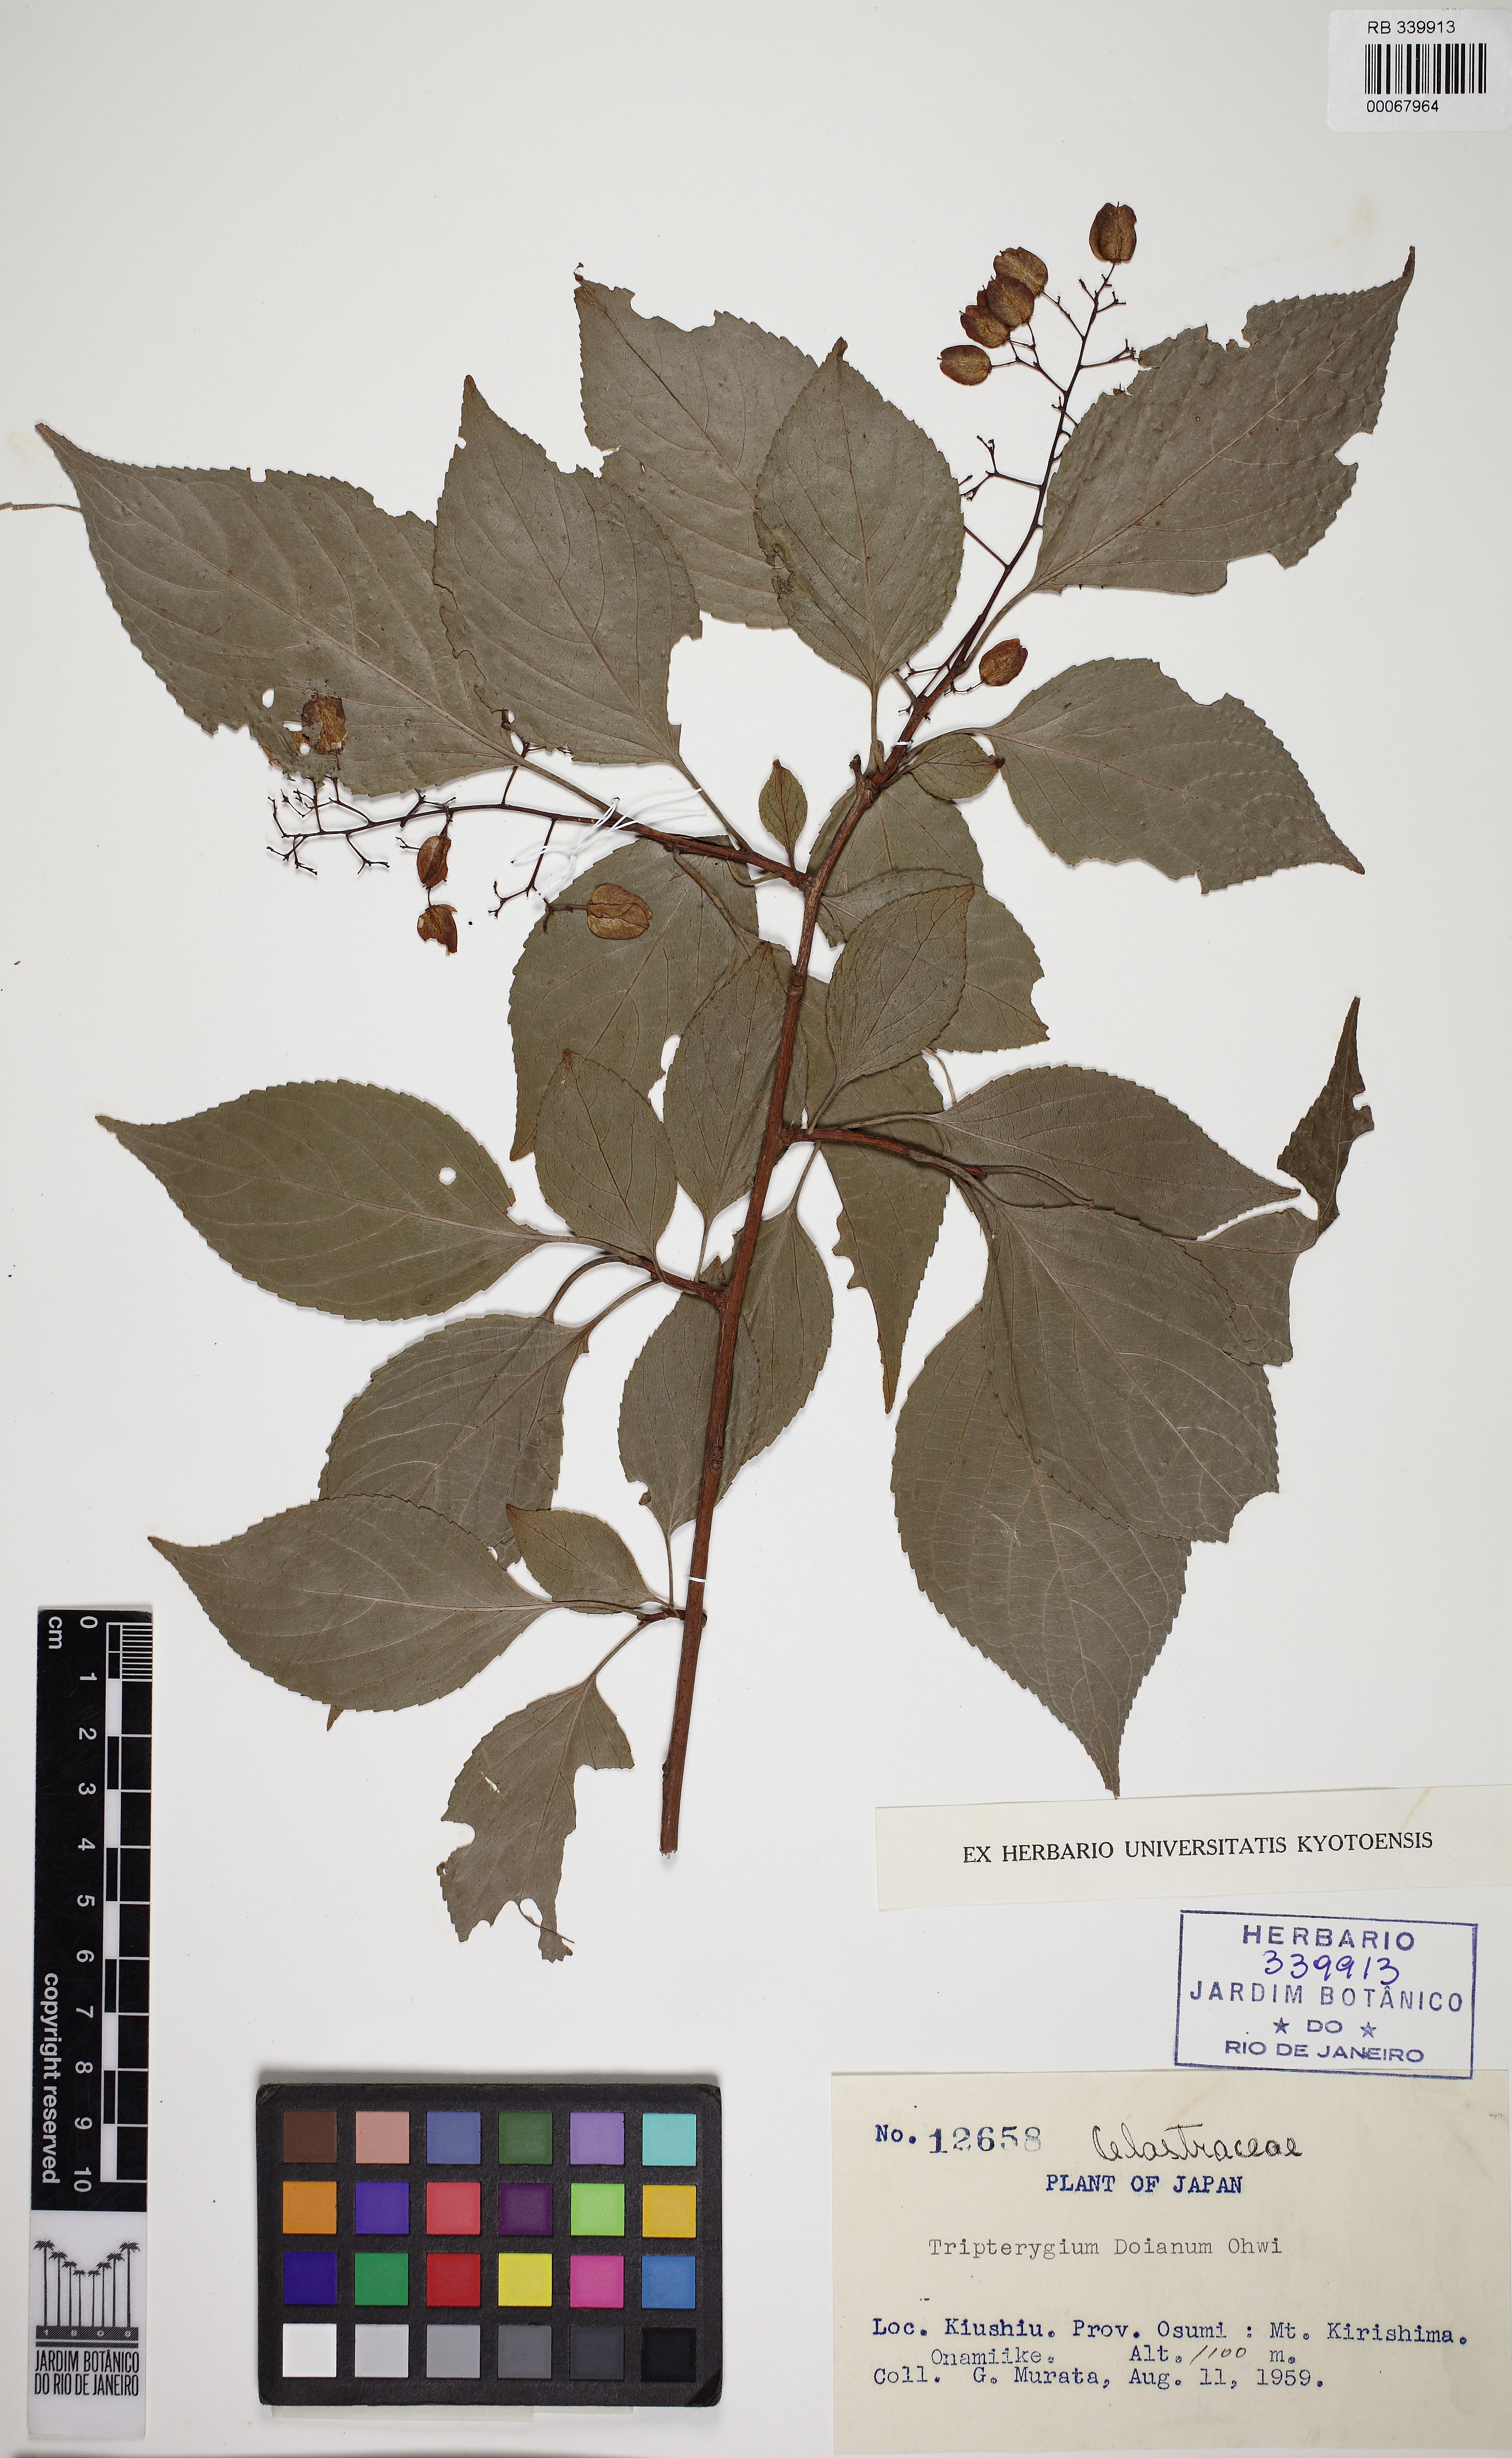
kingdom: Plantae
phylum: Tracheophyta
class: Magnoliopsida
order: Celastrales
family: Celastraceae
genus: Tripterygium
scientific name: Tripterygium doianum
